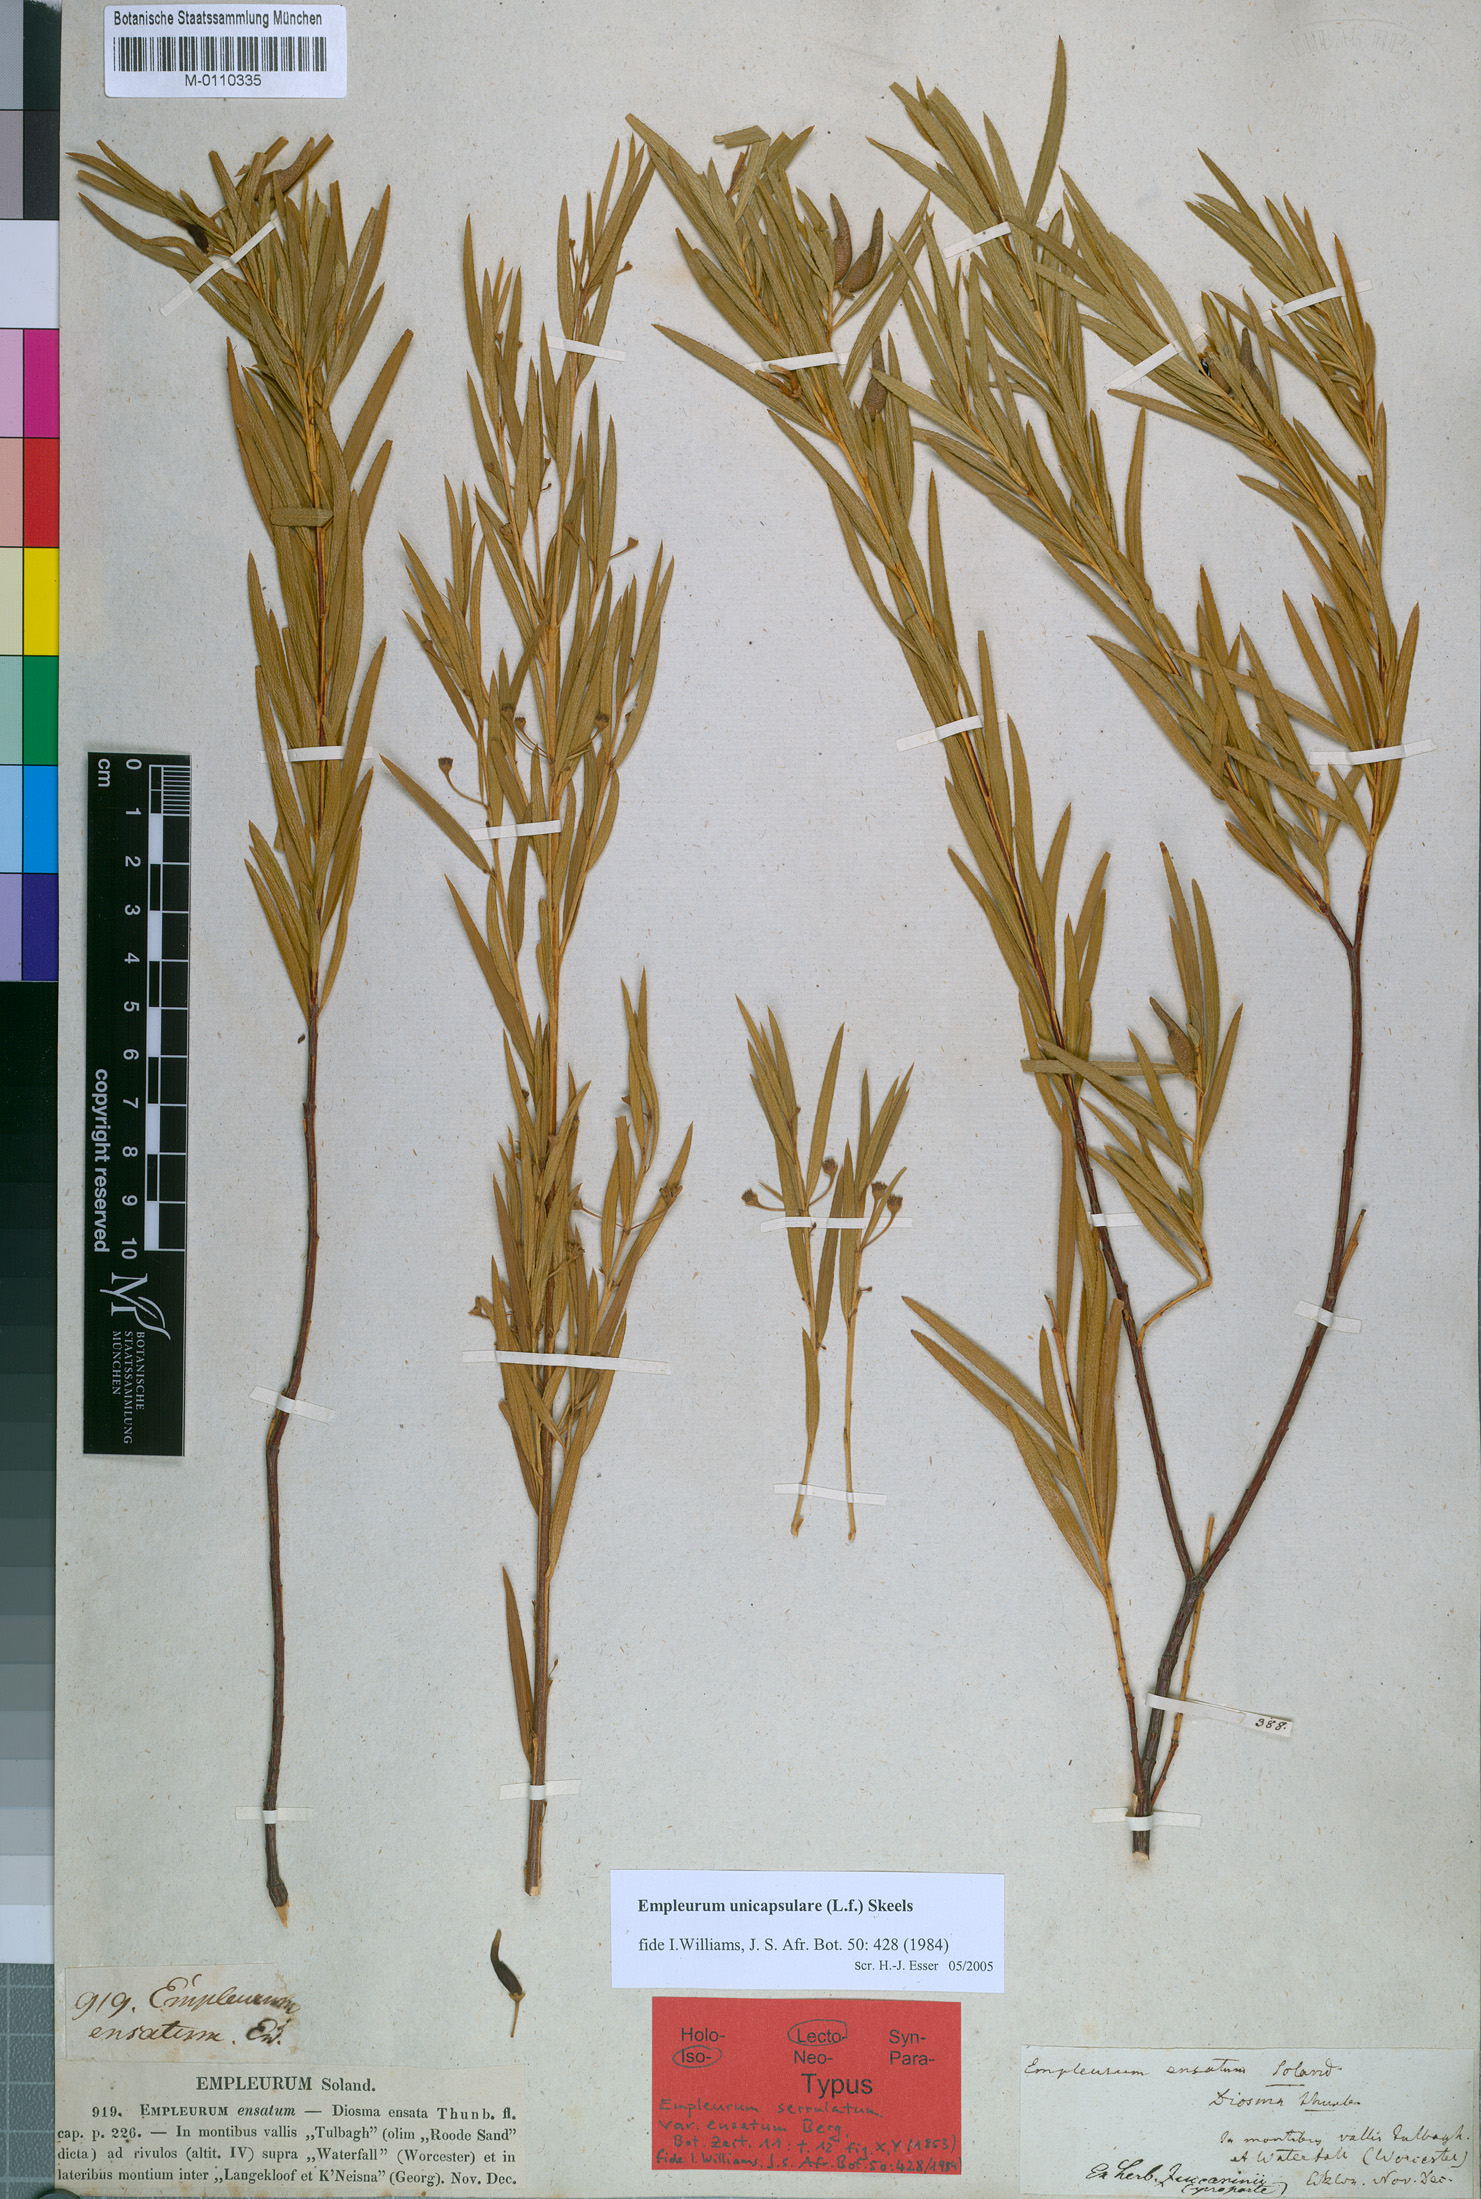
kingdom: Plantae
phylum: Tracheophyta
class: Magnoliopsida
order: Sapindales
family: Rutaceae
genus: Empleurum
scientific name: Empleurum unicapsulare
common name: False buchu
